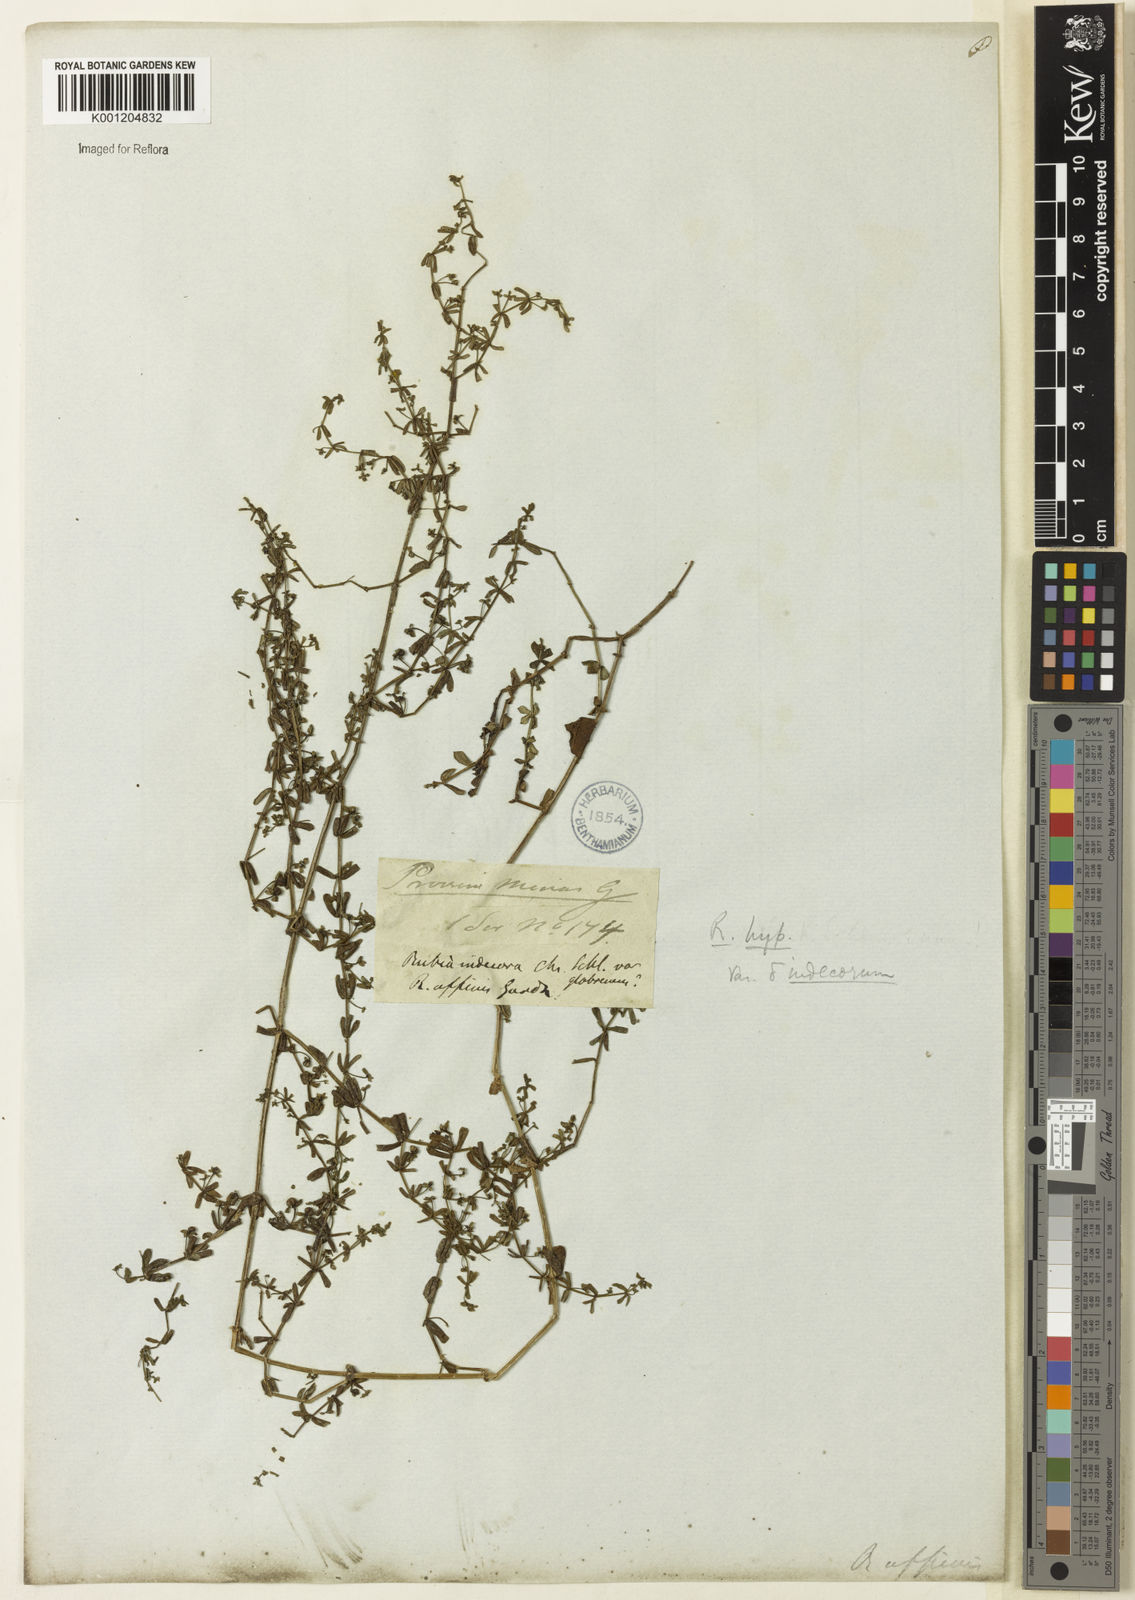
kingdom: Plantae
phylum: Tracheophyta
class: Magnoliopsida
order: Gentianales
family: Rubiaceae
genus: Galium
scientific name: Galium hypocarpium
